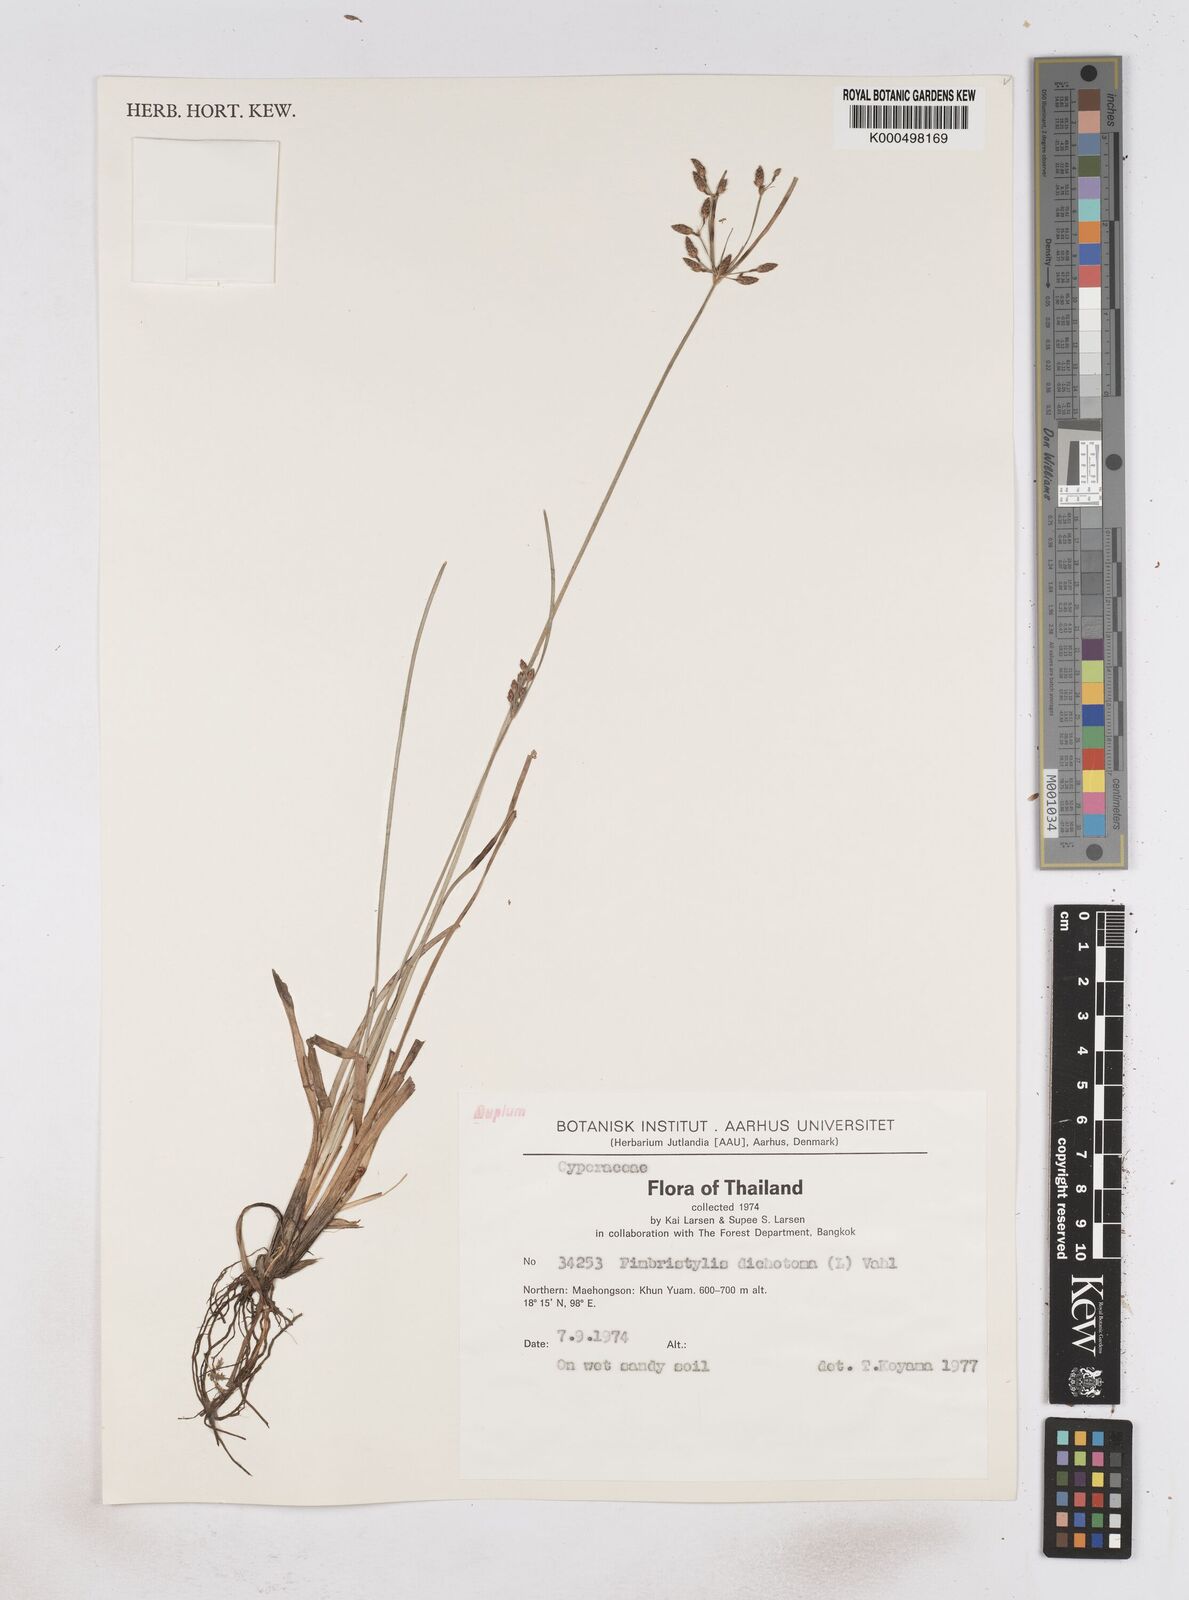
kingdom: Plantae
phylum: Tracheophyta
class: Liliopsida
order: Poales
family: Cyperaceae
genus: Fimbristylis
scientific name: Fimbristylis dichotoma
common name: Forked fimbry
